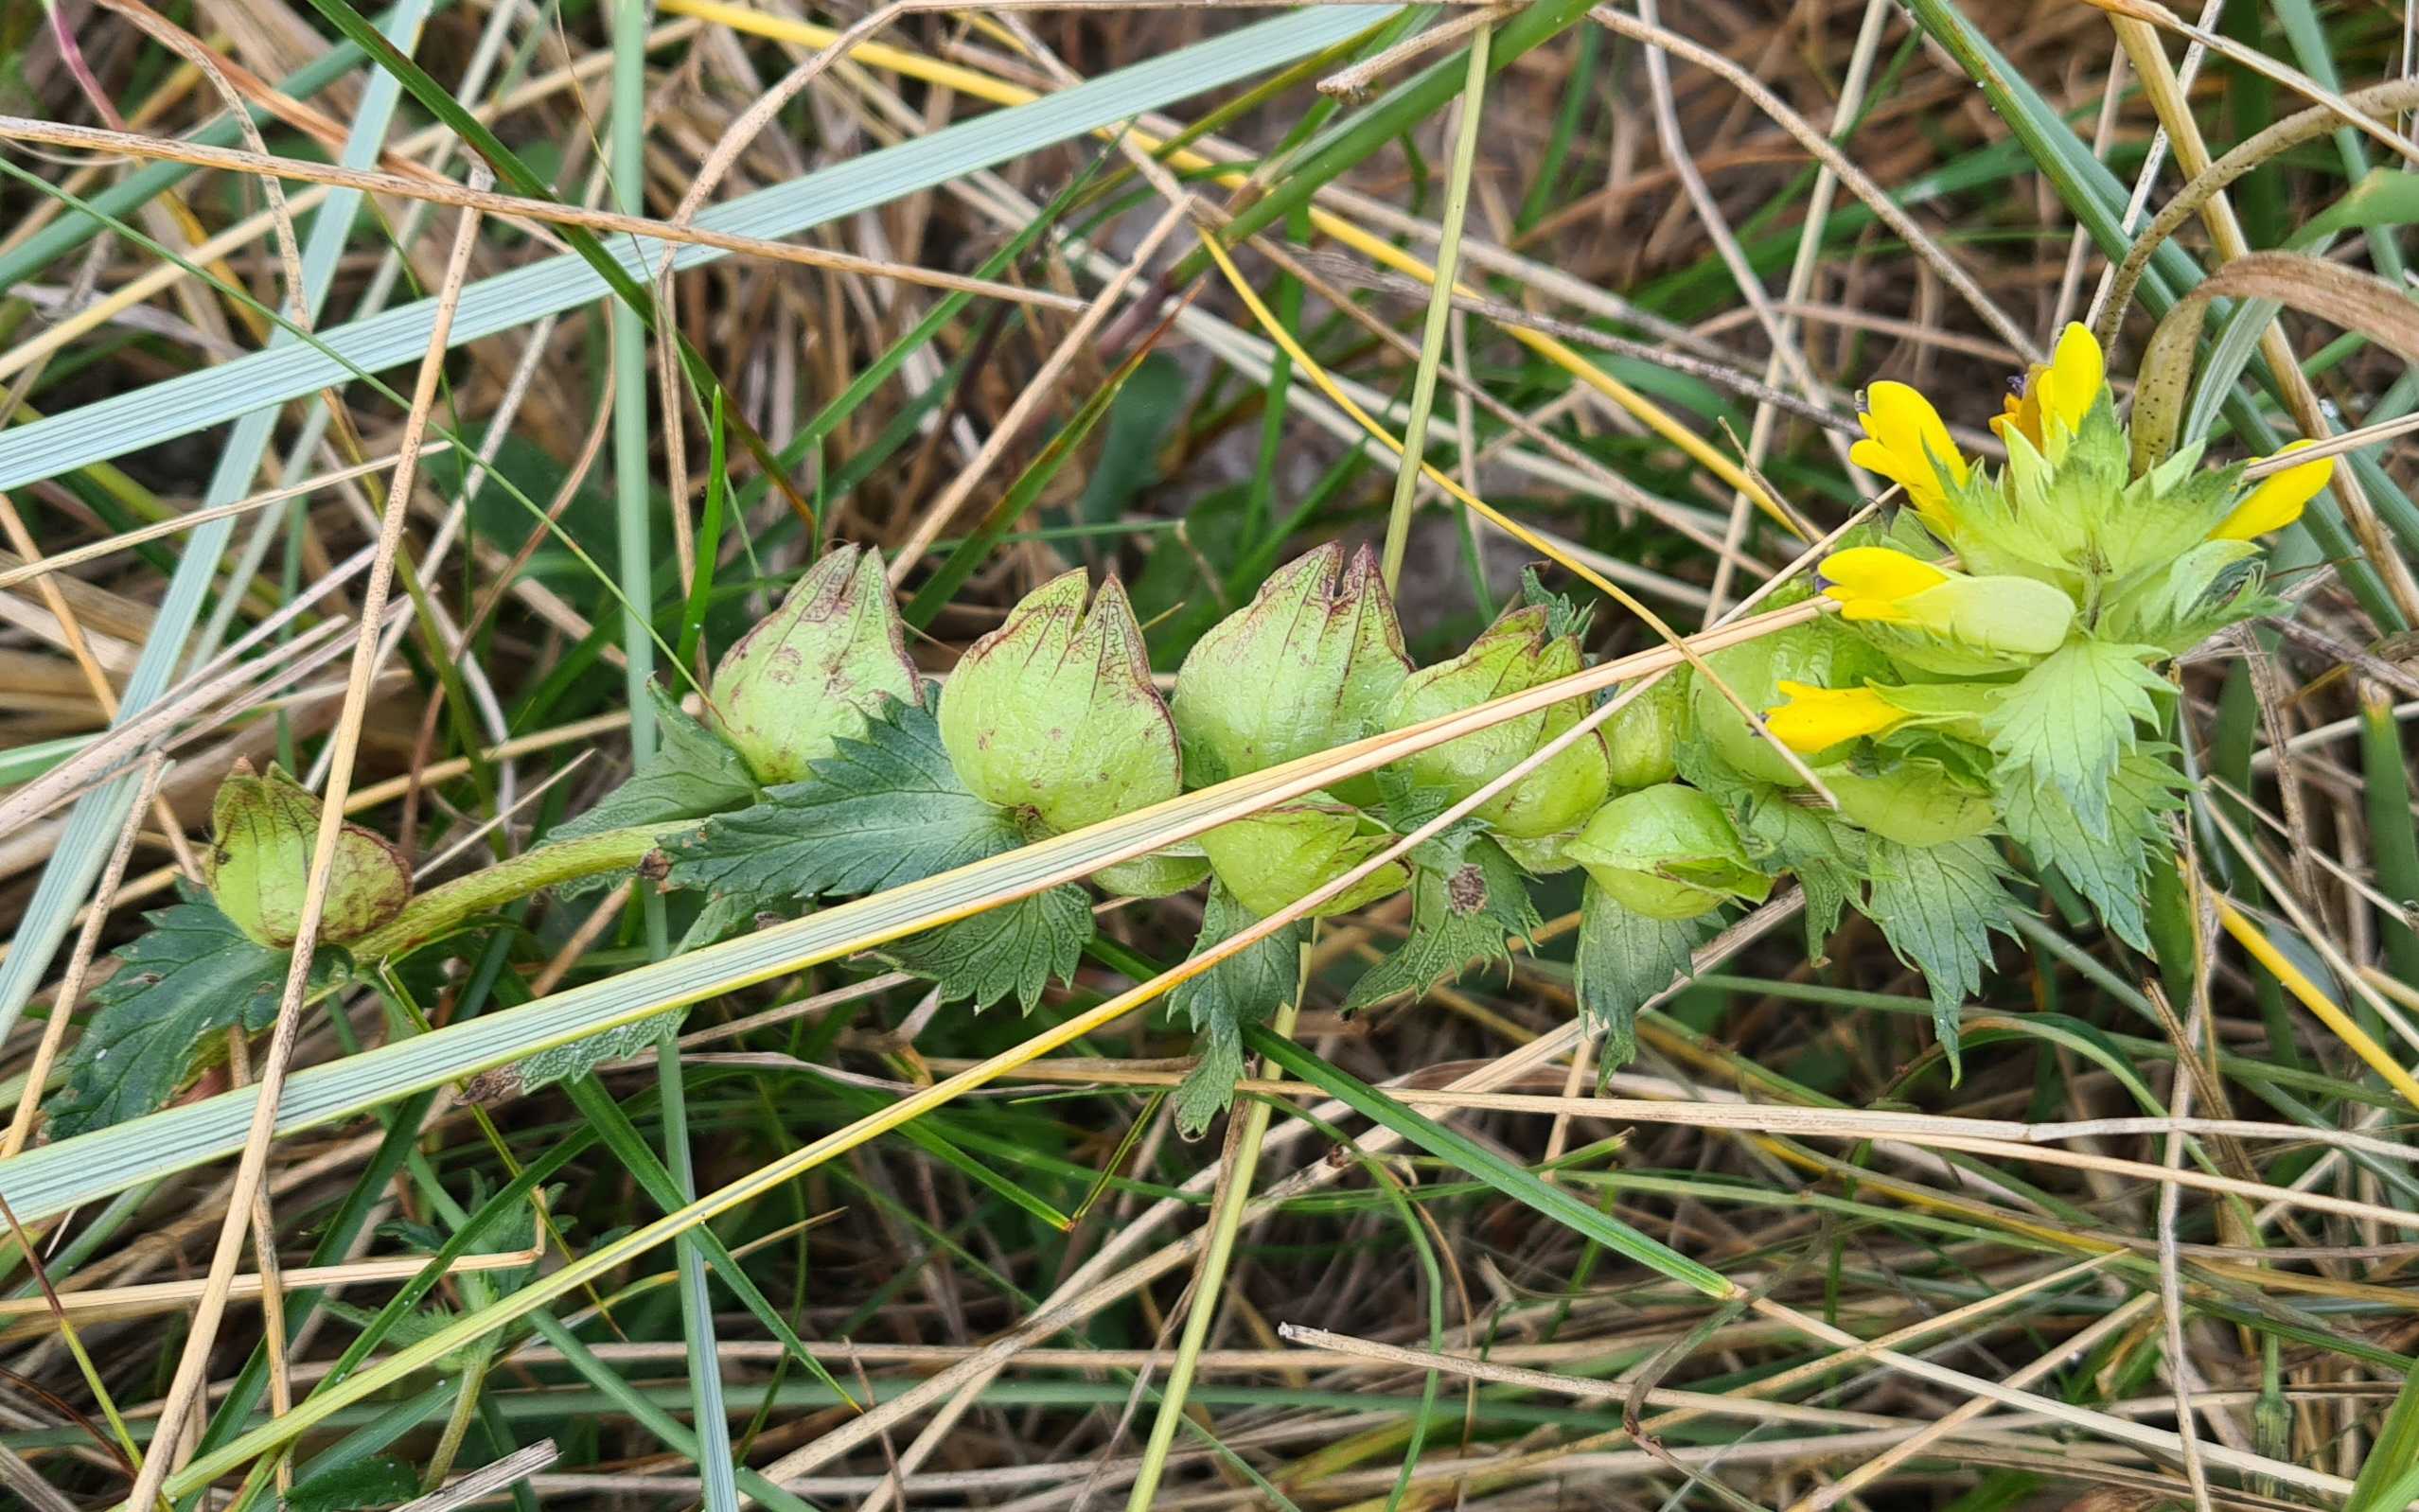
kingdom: Plantae
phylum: Tracheophyta
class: Magnoliopsida
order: Lamiales
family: Orobanchaceae
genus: Rhinanthus
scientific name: Rhinanthus
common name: Stor skjaller
